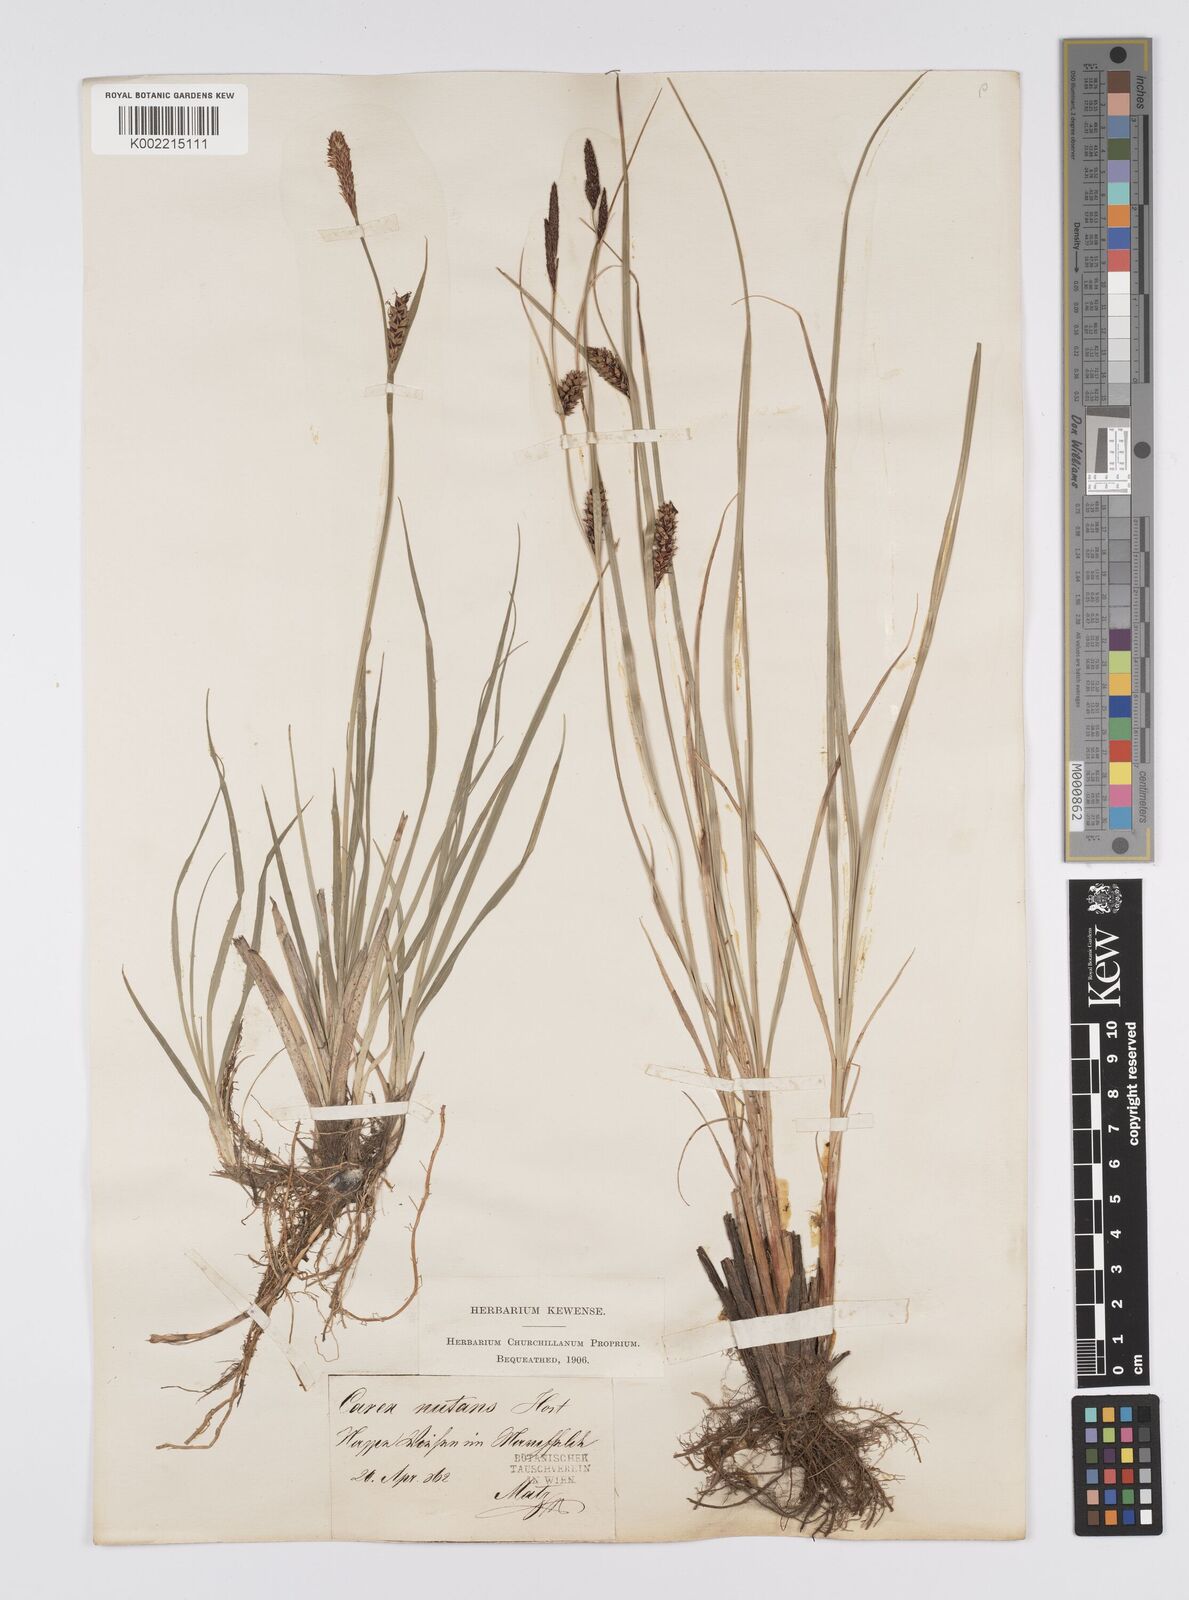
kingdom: Plantae
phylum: Tracheophyta
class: Liliopsida
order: Poales
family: Cyperaceae
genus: Carex
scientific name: Carex melanostachya
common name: Black-spiked sedge
